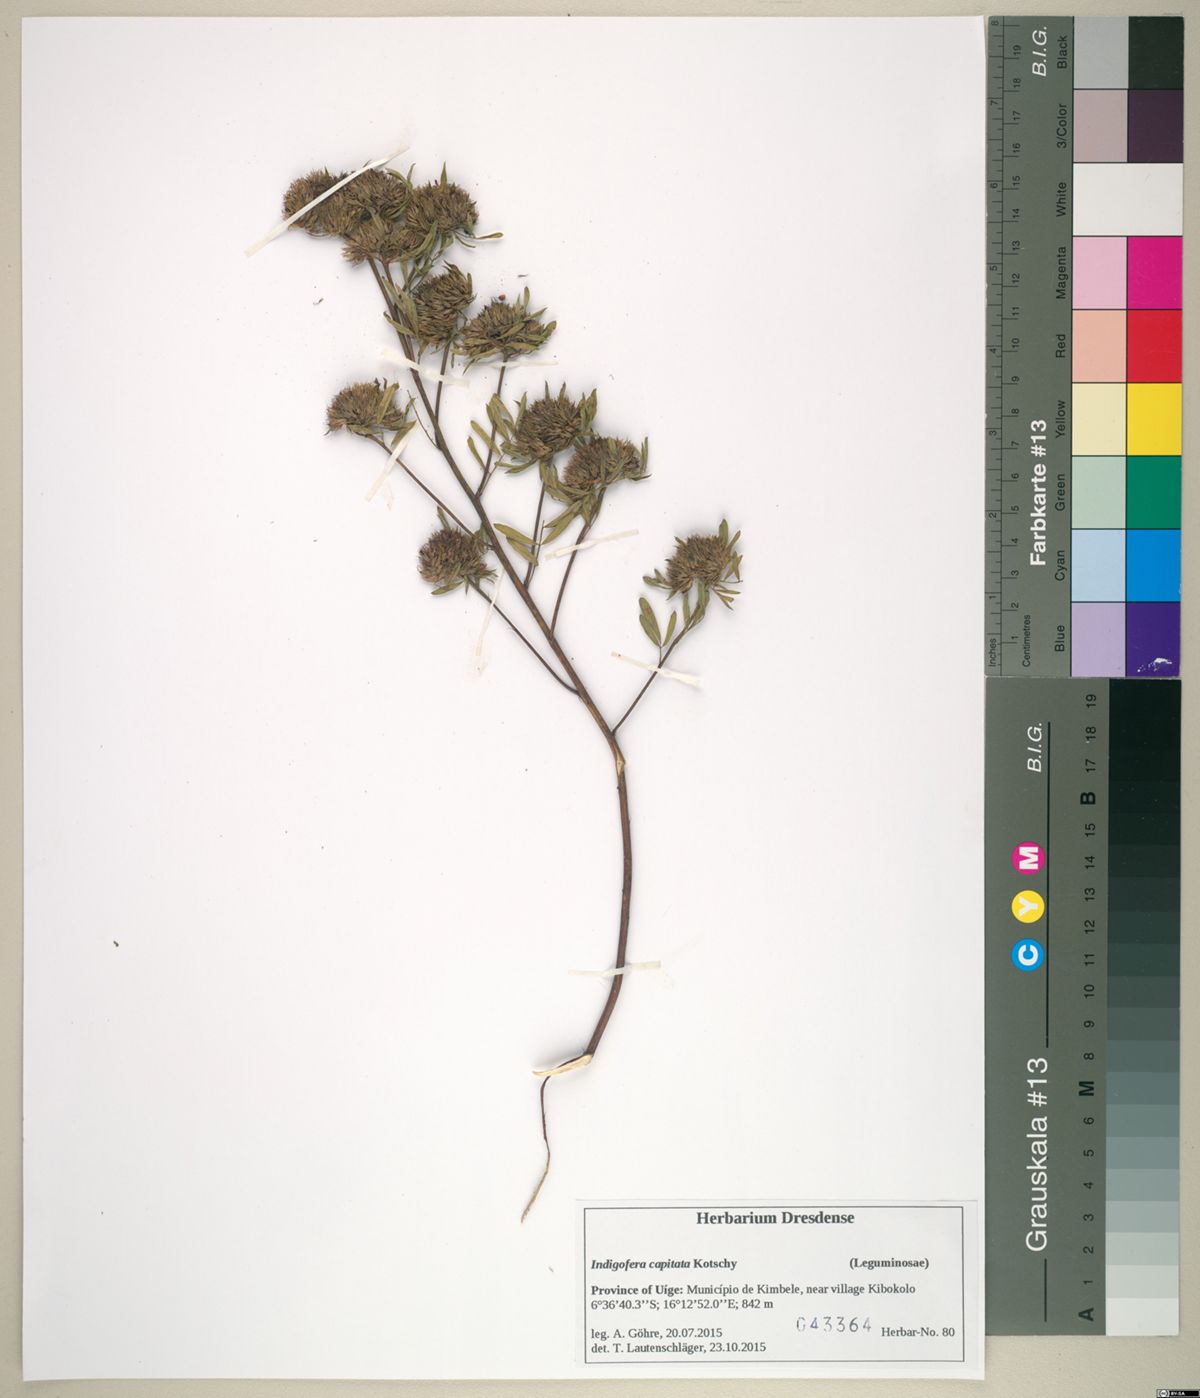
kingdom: Plantae
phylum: Tracheophyta
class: Magnoliopsida
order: Fabales
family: Fabaceae
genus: Indigofera
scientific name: Indigofera paracapitata
